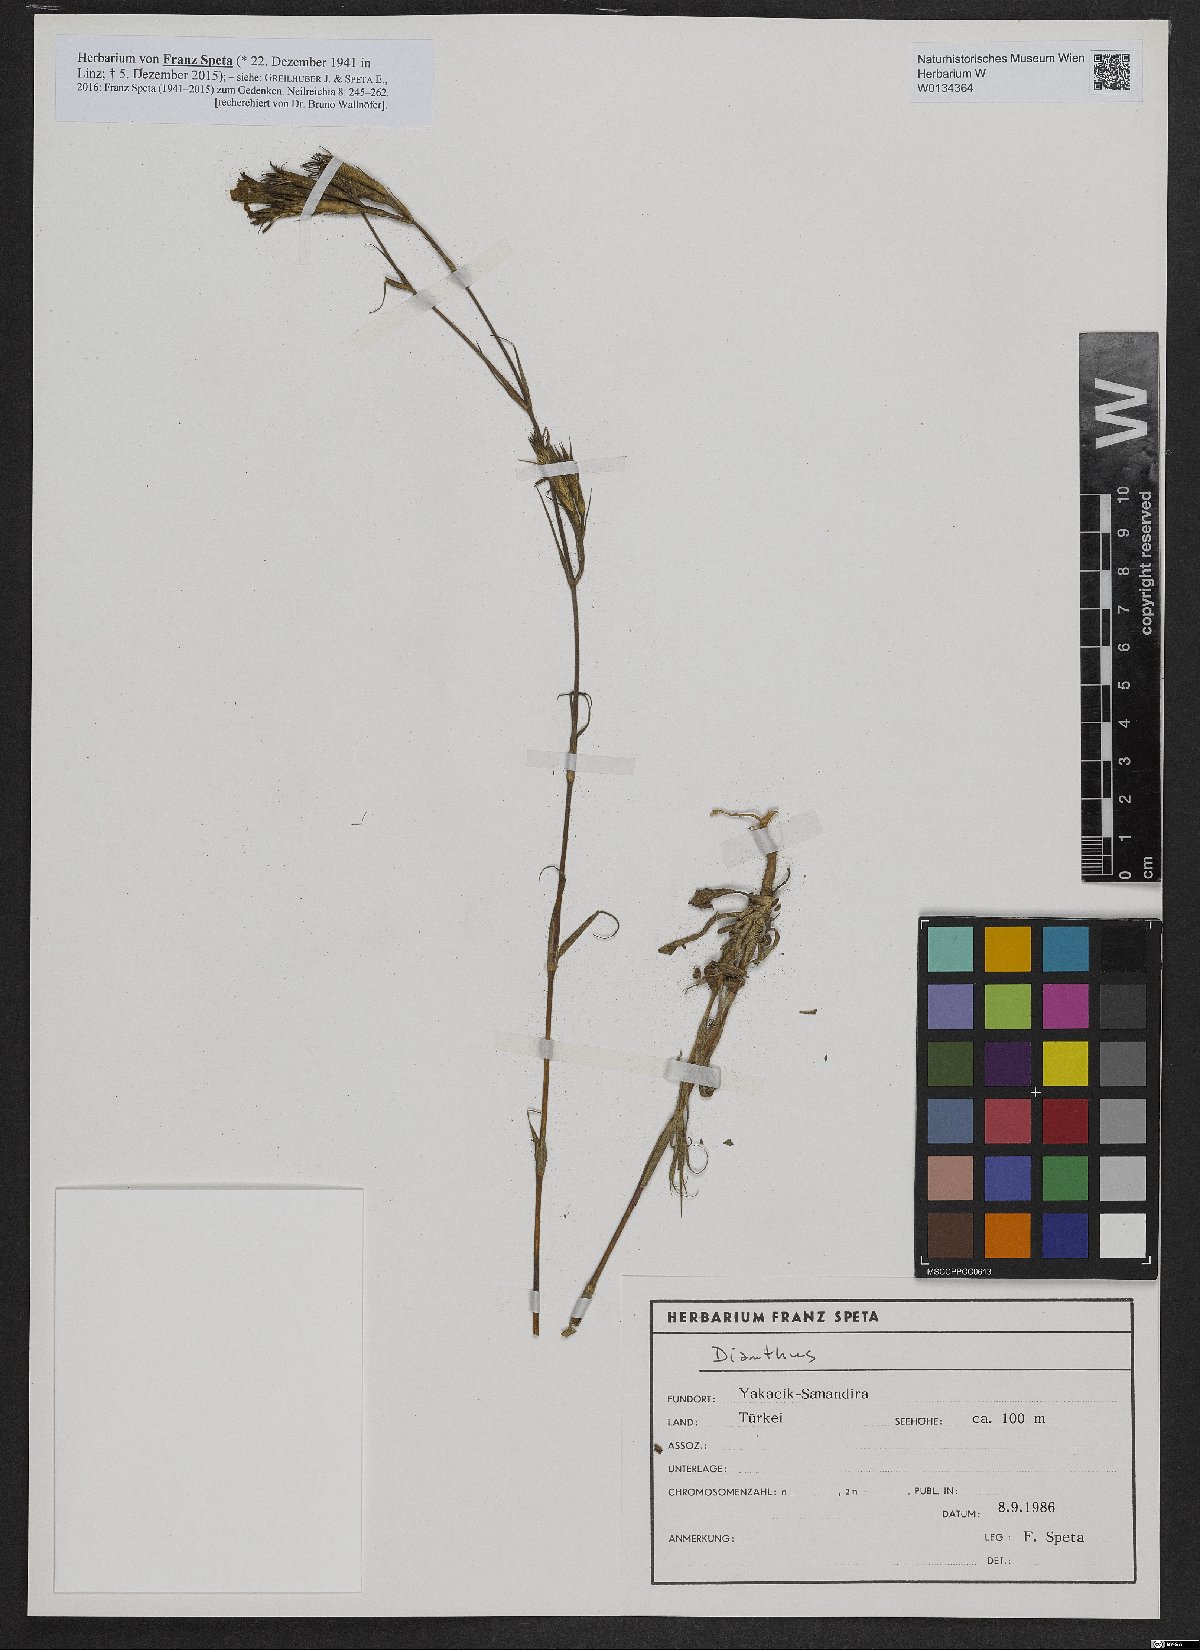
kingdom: Plantae
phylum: Tracheophyta
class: Magnoliopsida
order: Caryophyllales
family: Caryophyllaceae
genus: Dianthus
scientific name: Dianthus
